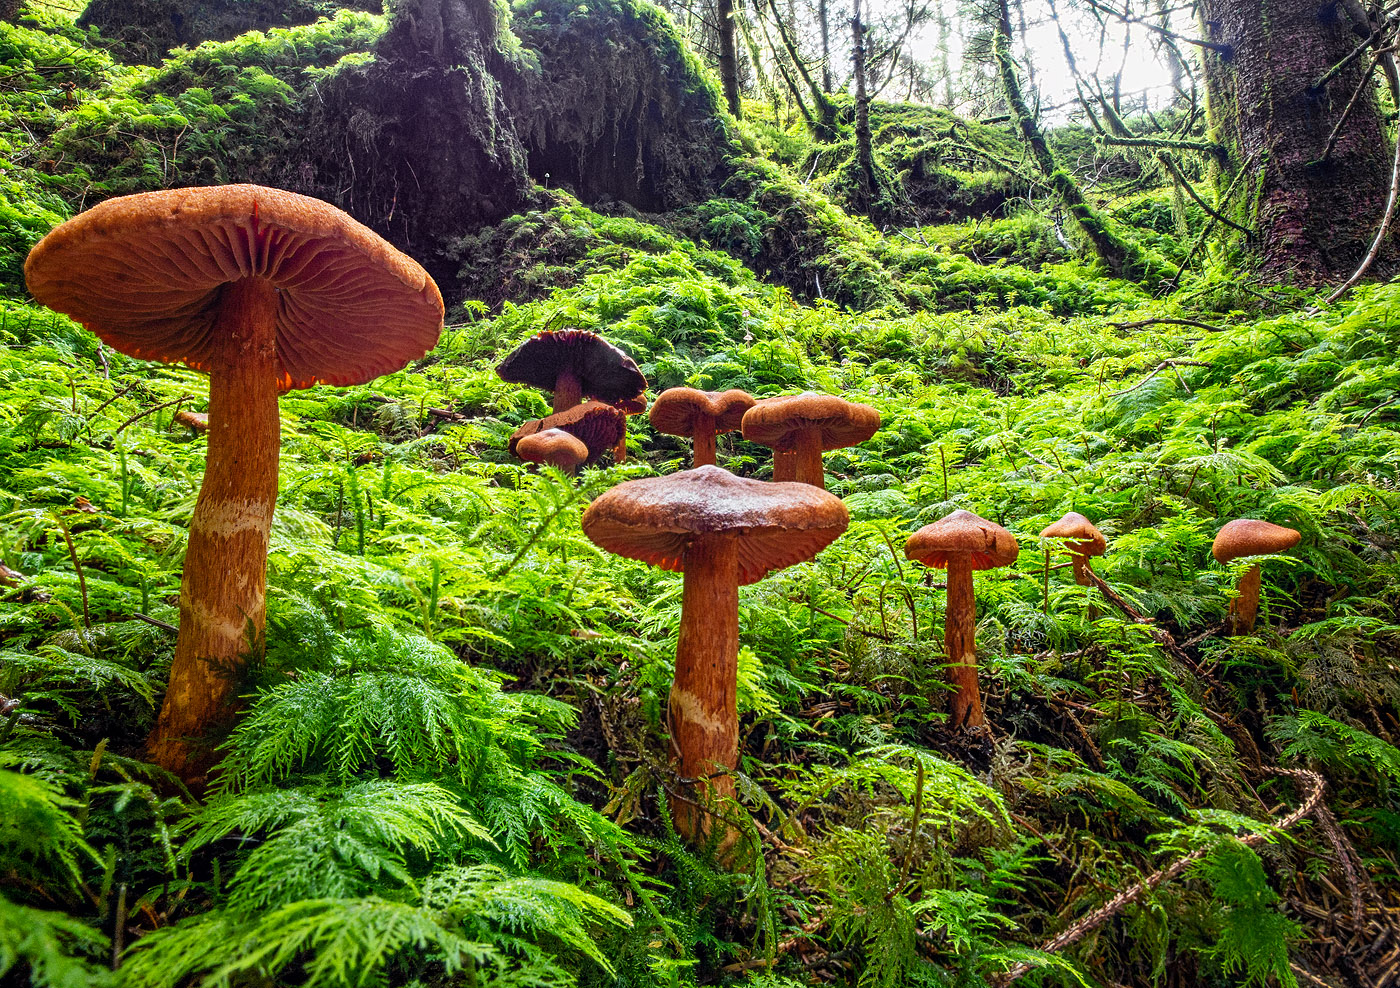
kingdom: Fungi
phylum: Basidiomycota
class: Agaricomycetes
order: Agaricales
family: Cortinariaceae
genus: Cortinarius
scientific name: Cortinarius rubellus
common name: puklet gift-slørhat
